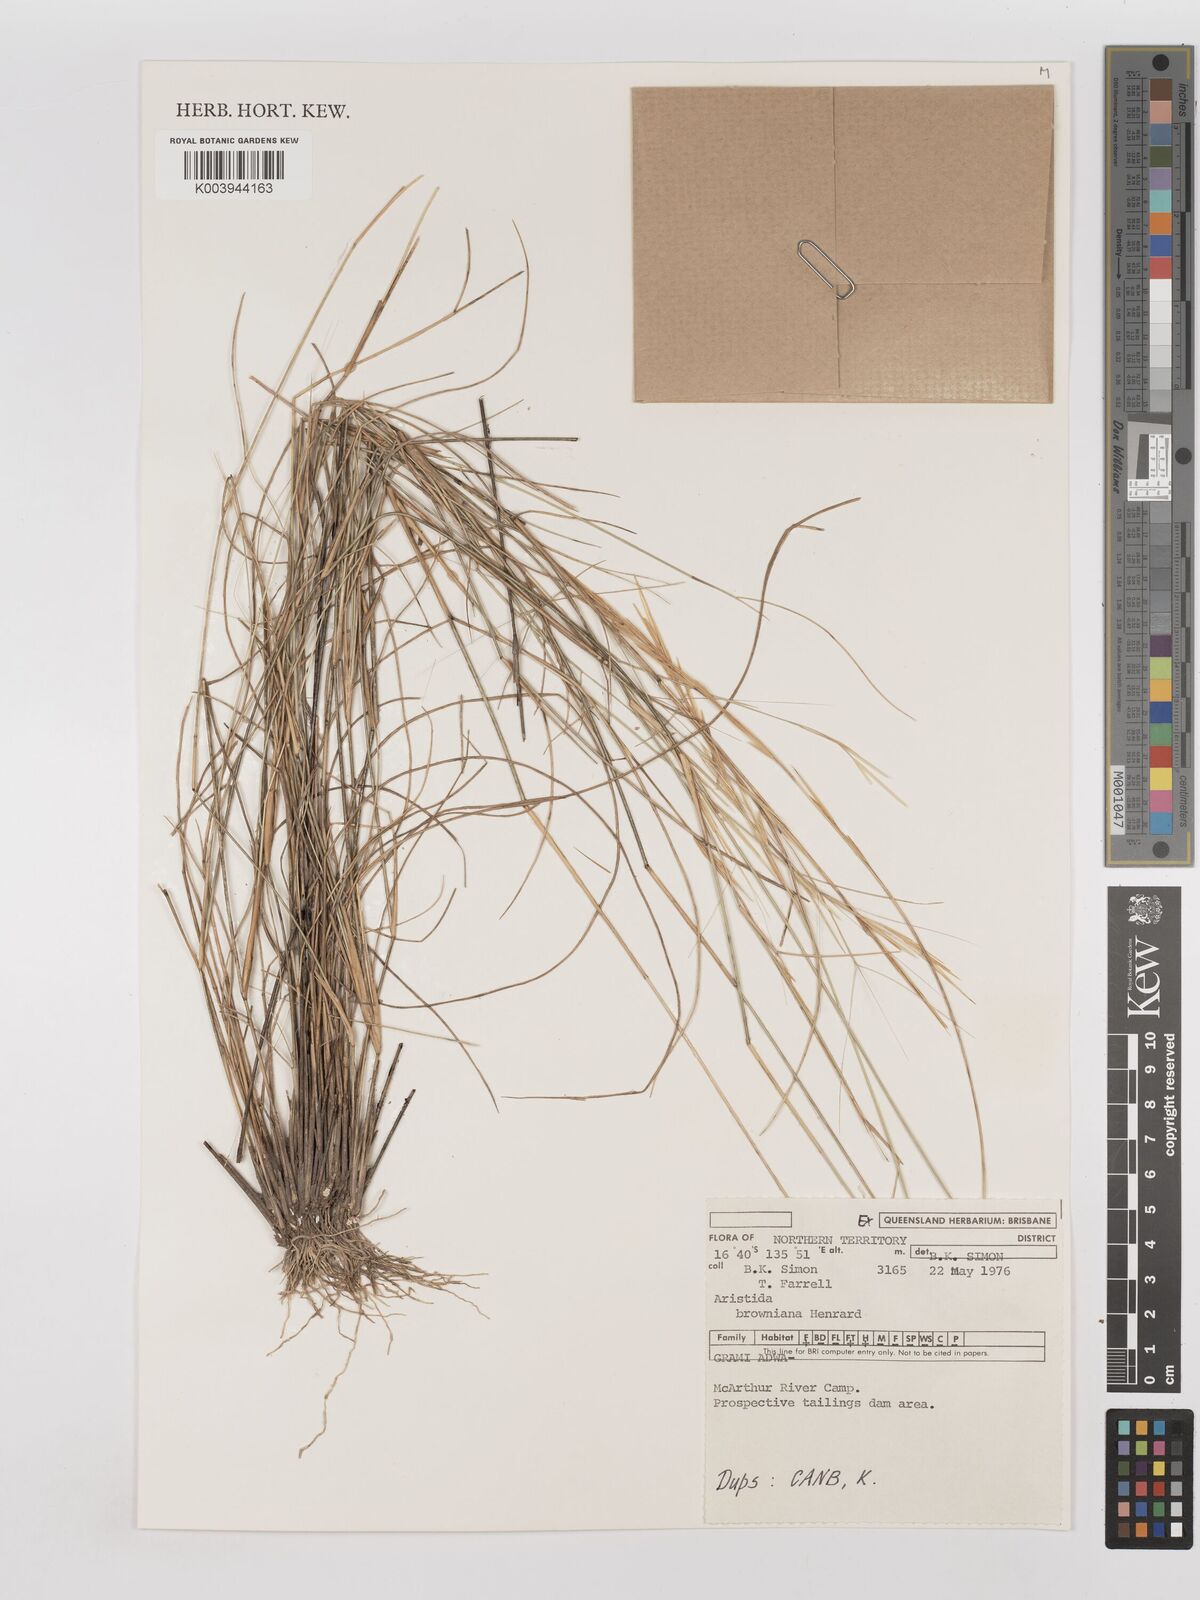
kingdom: Plantae
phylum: Tracheophyta
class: Liliopsida
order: Poales
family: Poaceae
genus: Aristida
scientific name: Aristida holathera
